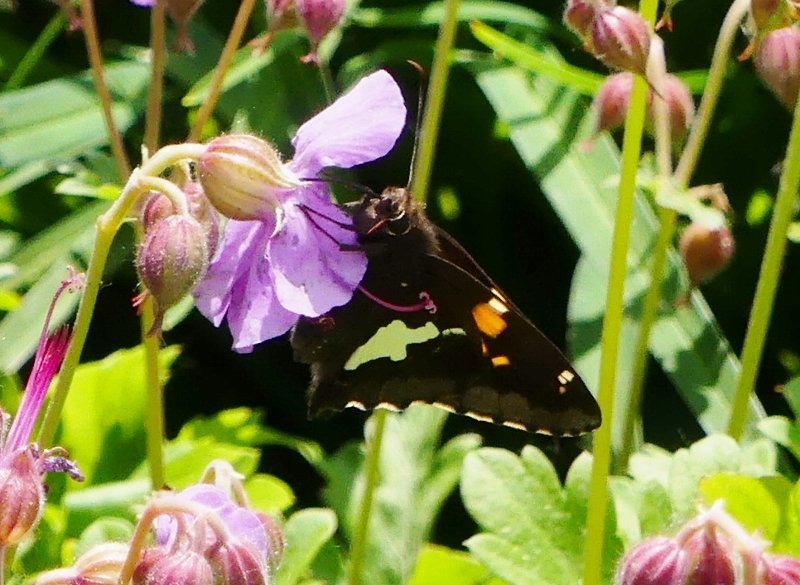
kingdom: Animalia
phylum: Arthropoda
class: Insecta
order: Lepidoptera
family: Hesperiidae
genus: Epargyreus
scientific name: Epargyreus clarus
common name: Silver-spotted Skipper
